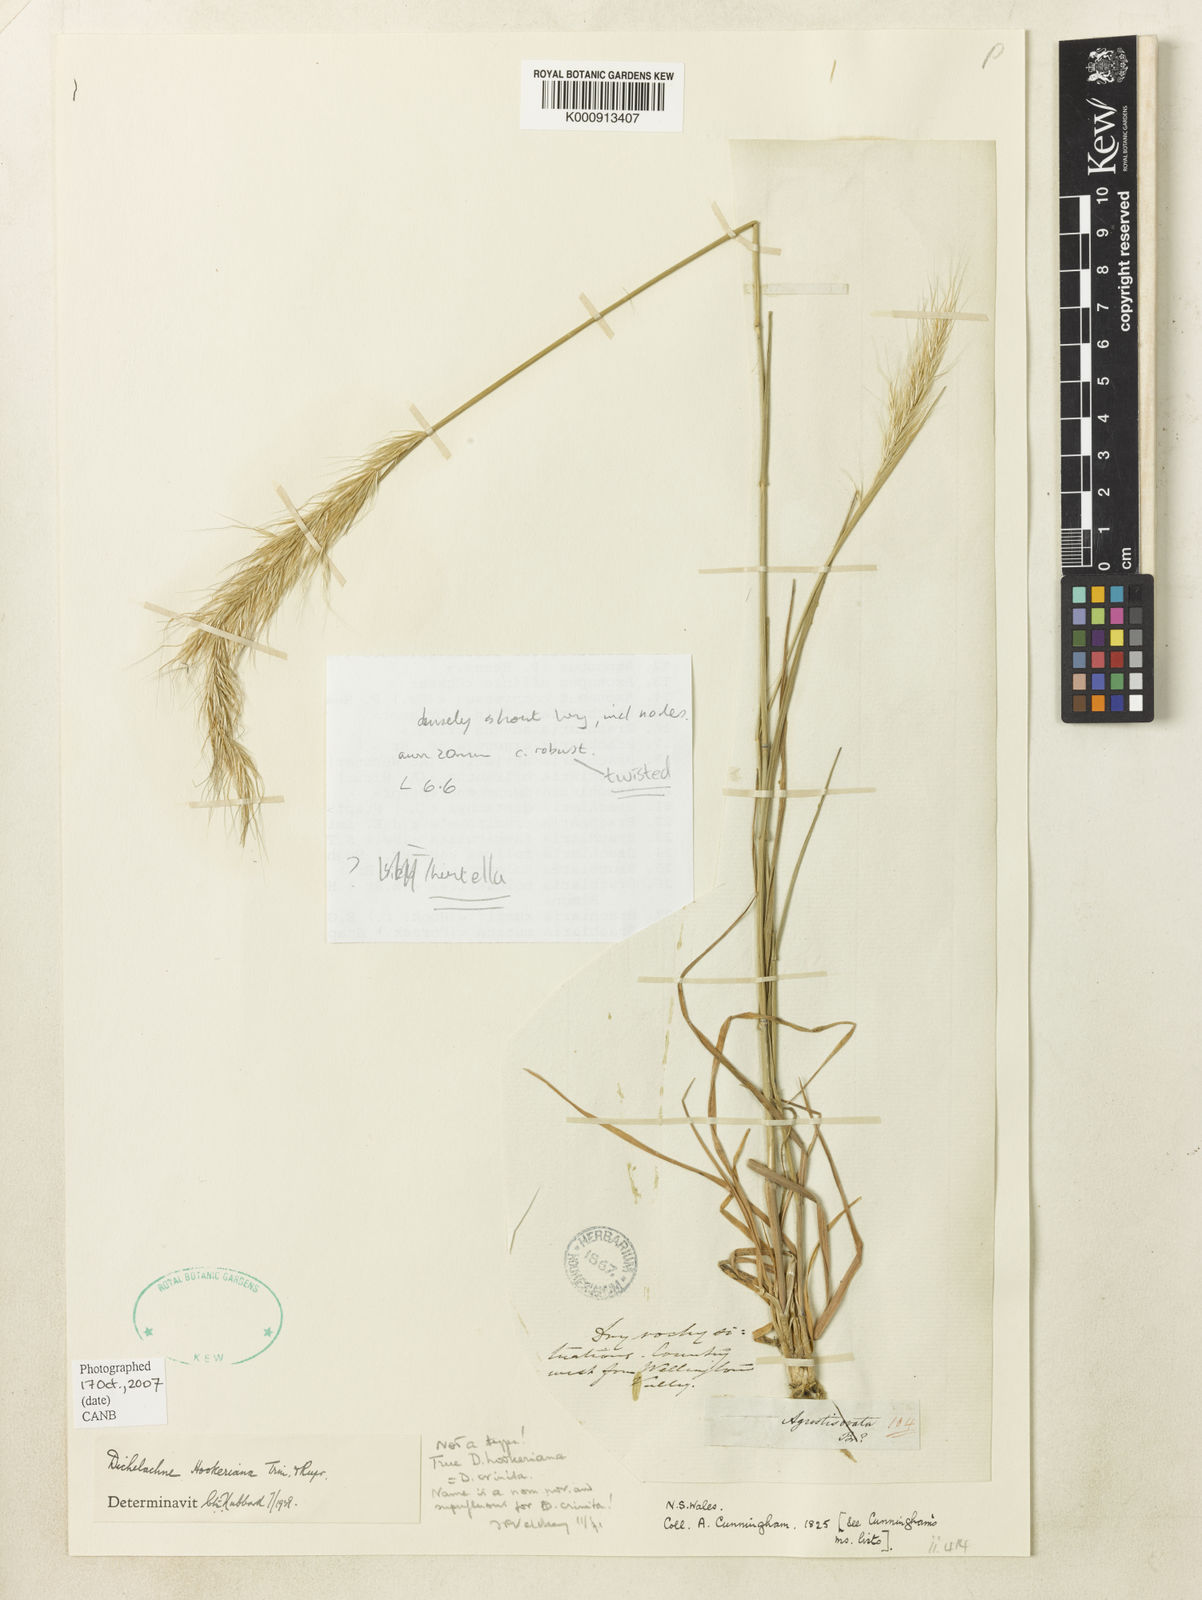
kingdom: Plantae
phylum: Tracheophyta
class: Liliopsida
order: Poales
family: Poaceae
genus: Dichelachne
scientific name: Dichelachne crinita
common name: Clovenfoot plumegrass
